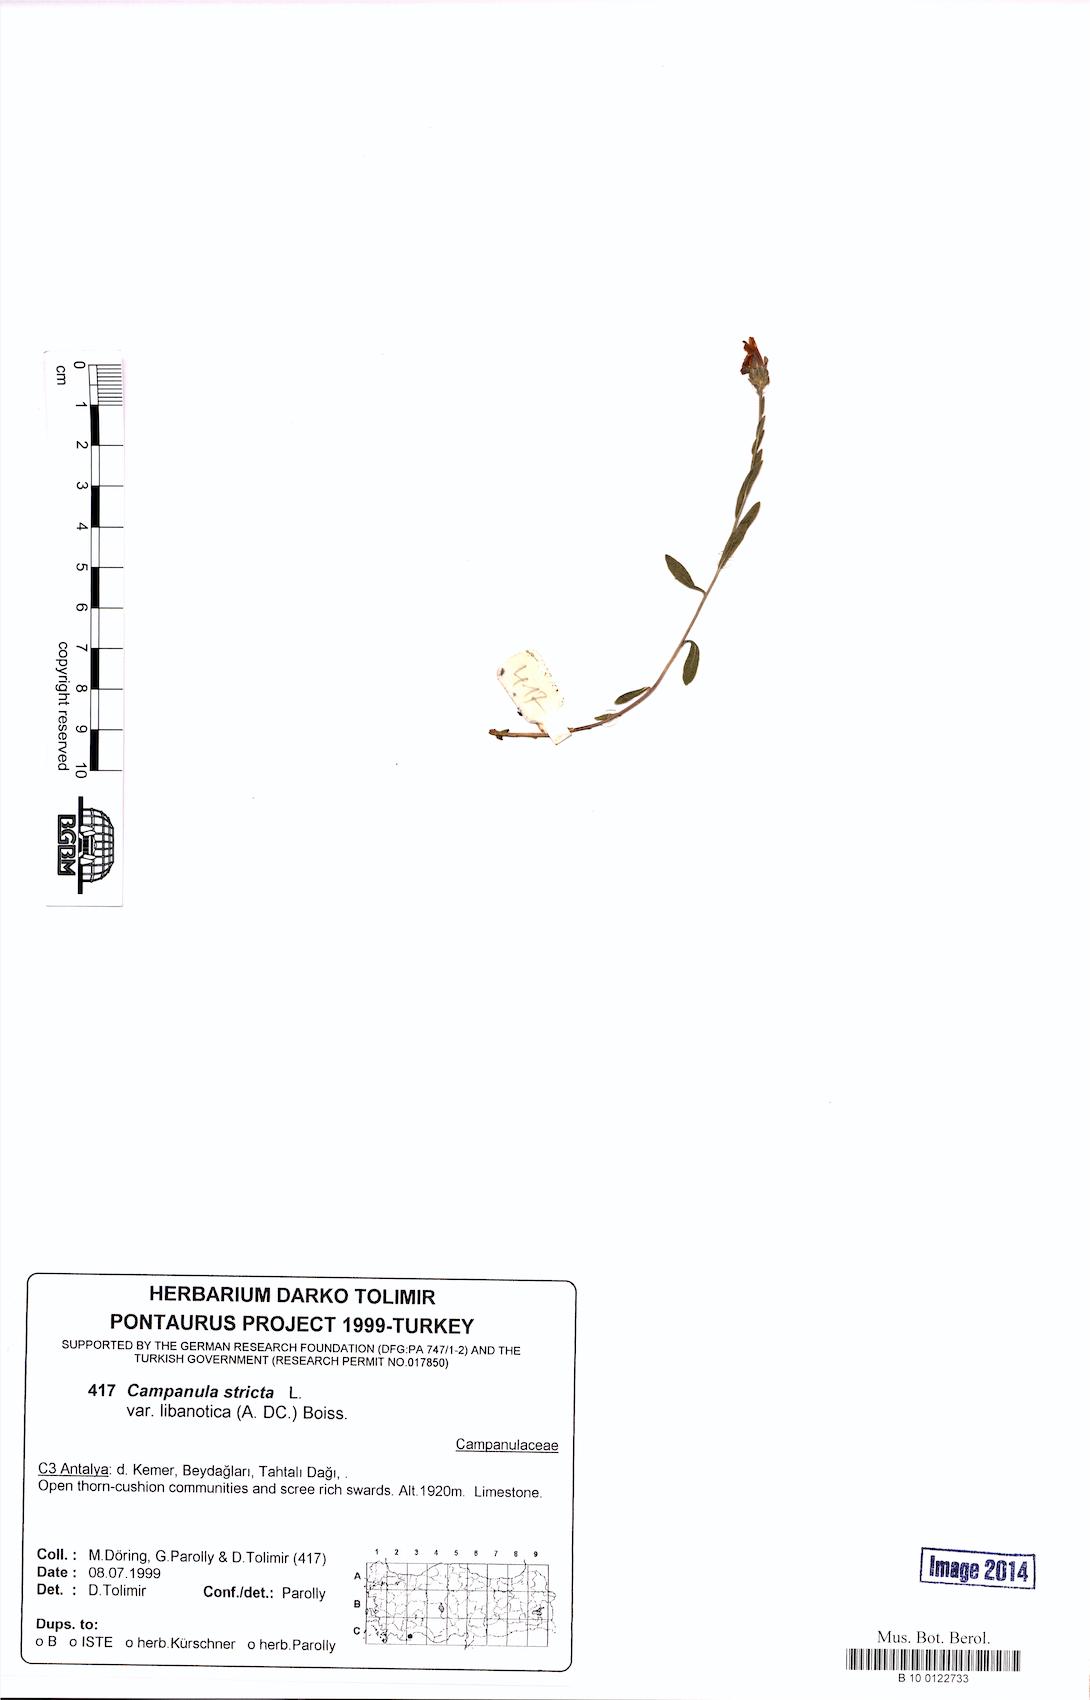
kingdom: Plantae
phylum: Tracheophyta
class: Magnoliopsida
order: Asterales
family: Campanulaceae
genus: Campanula
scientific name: Campanula stricta
